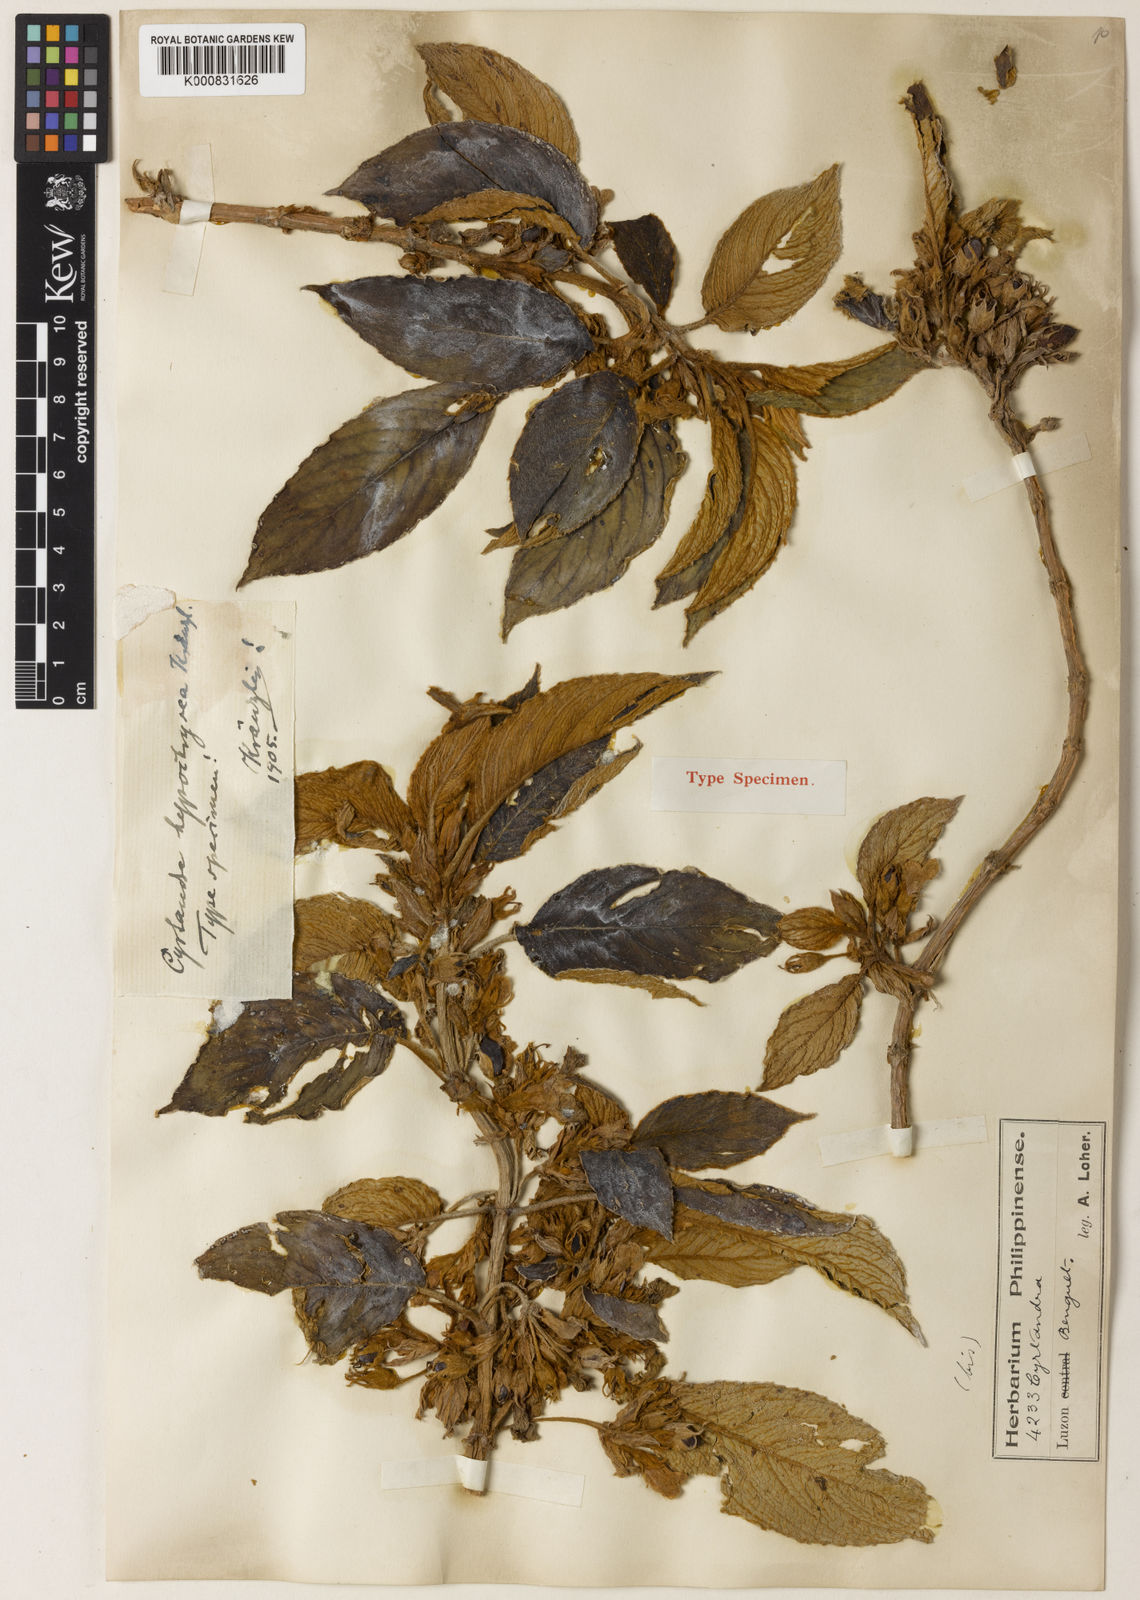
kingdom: Plantae
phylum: Tracheophyta
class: Magnoliopsida
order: Lamiales
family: Gesneriaceae
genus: Cyrtandra
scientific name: Cyrtandra hypochrysea
